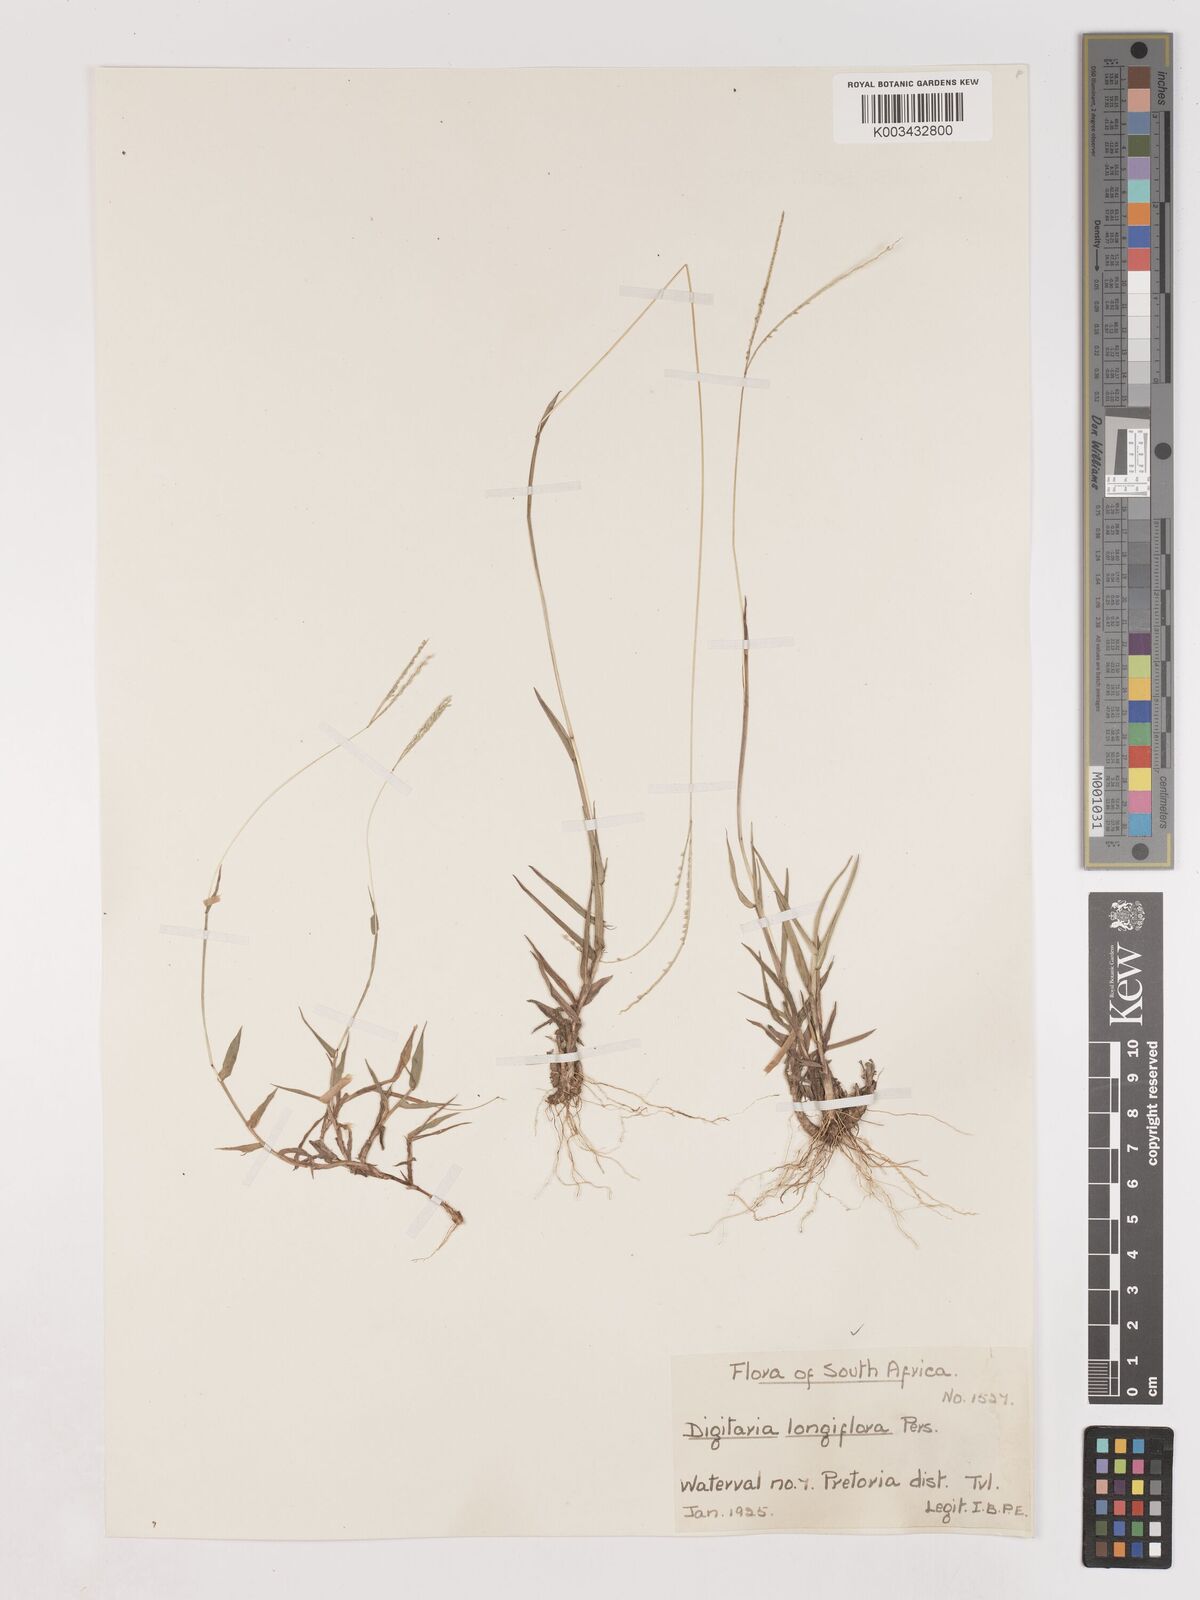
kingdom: Plantae
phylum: Tracheophyta
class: Liliopsida
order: Poales
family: Poaceae
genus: Digitaria
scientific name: Digitaria longiflora
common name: Wire crabgrass
